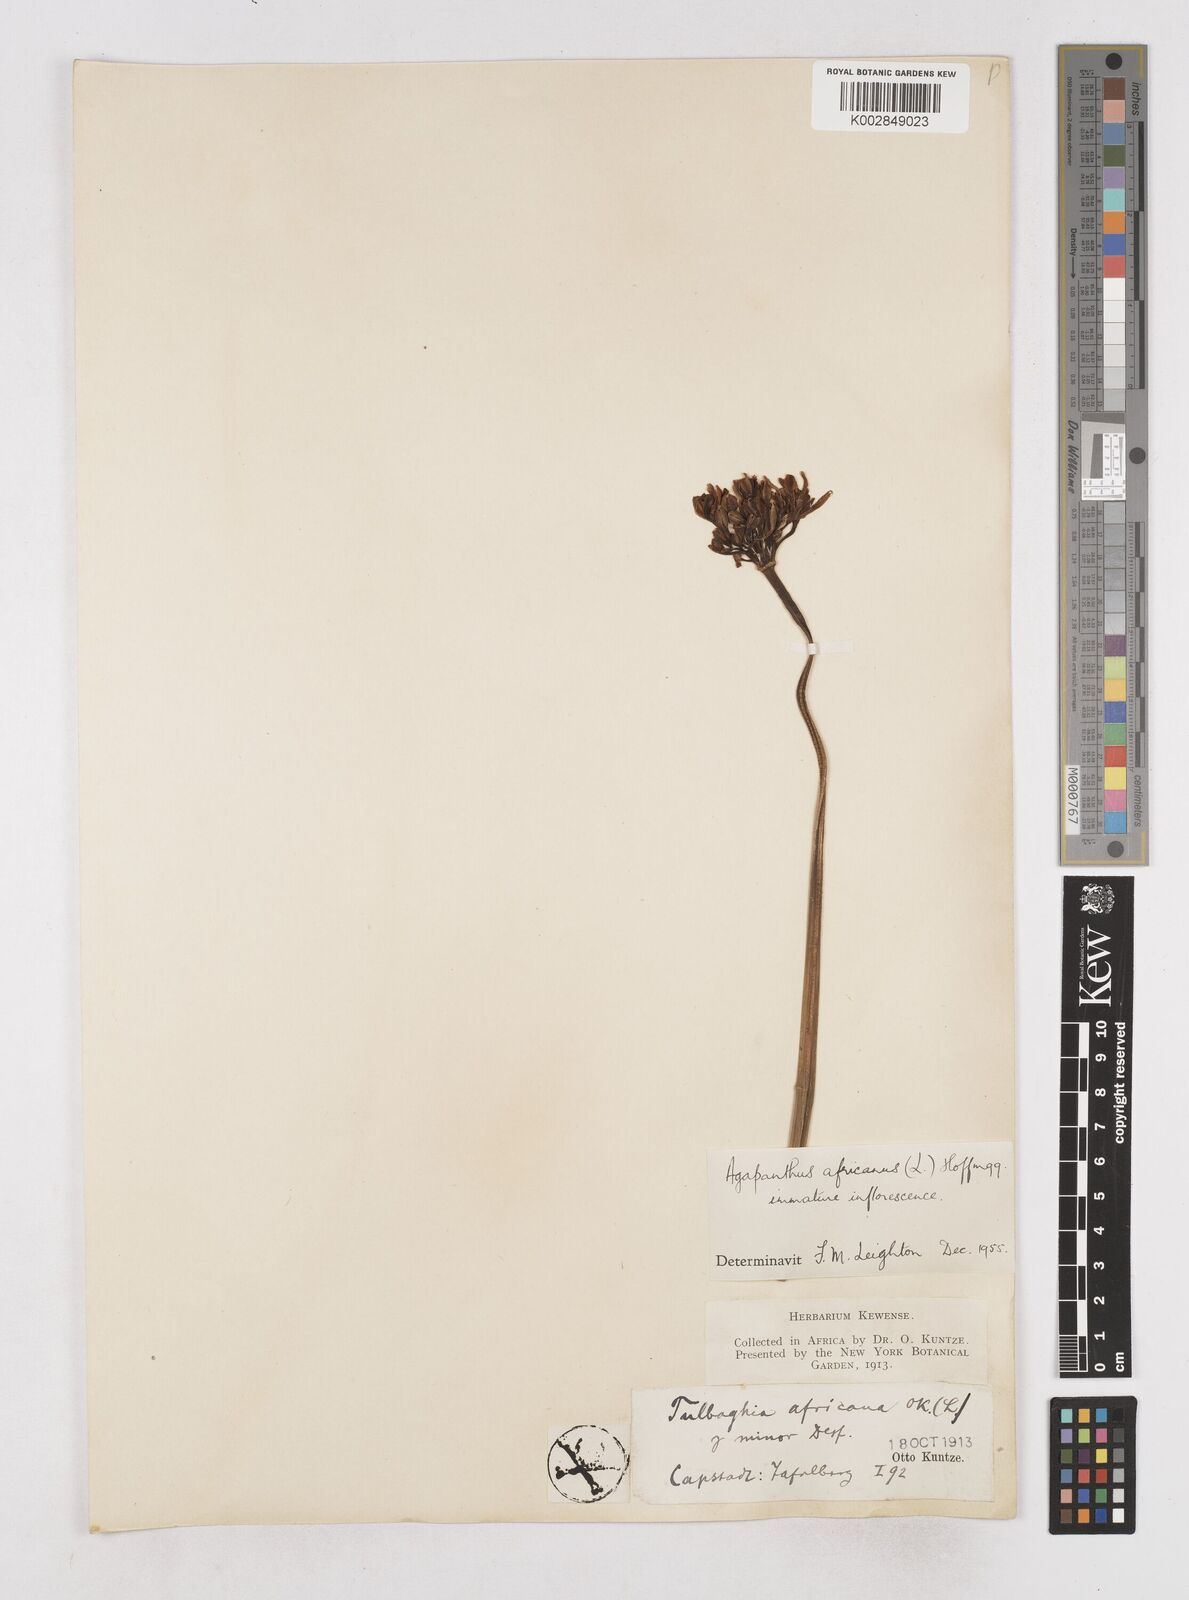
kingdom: Plantae
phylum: Tracheophyta
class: Liliopsida
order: Asparagales
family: Amaryllidaceae
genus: Agapanthus
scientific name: Agapanthus africanus
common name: Lily-of-the-nile
